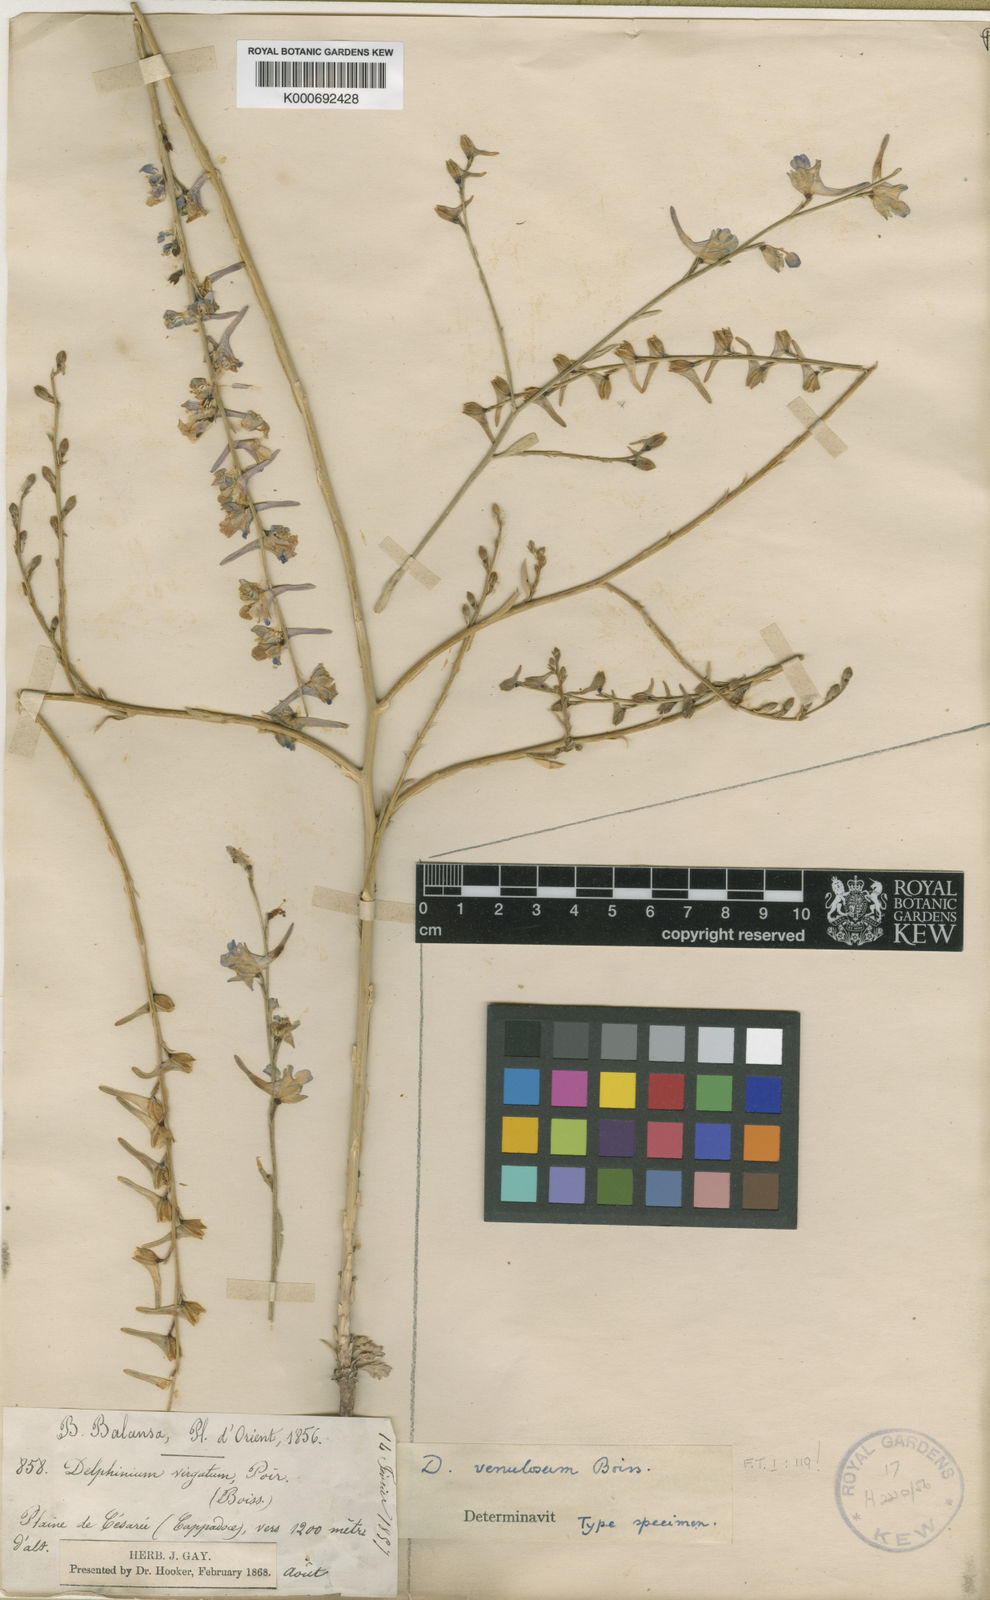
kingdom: Plantae
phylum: Tracheophyta
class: Magnoliopsida
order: Ranunculales
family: Ranunculaceae
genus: Delphinium
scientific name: Delphinium venulosum
